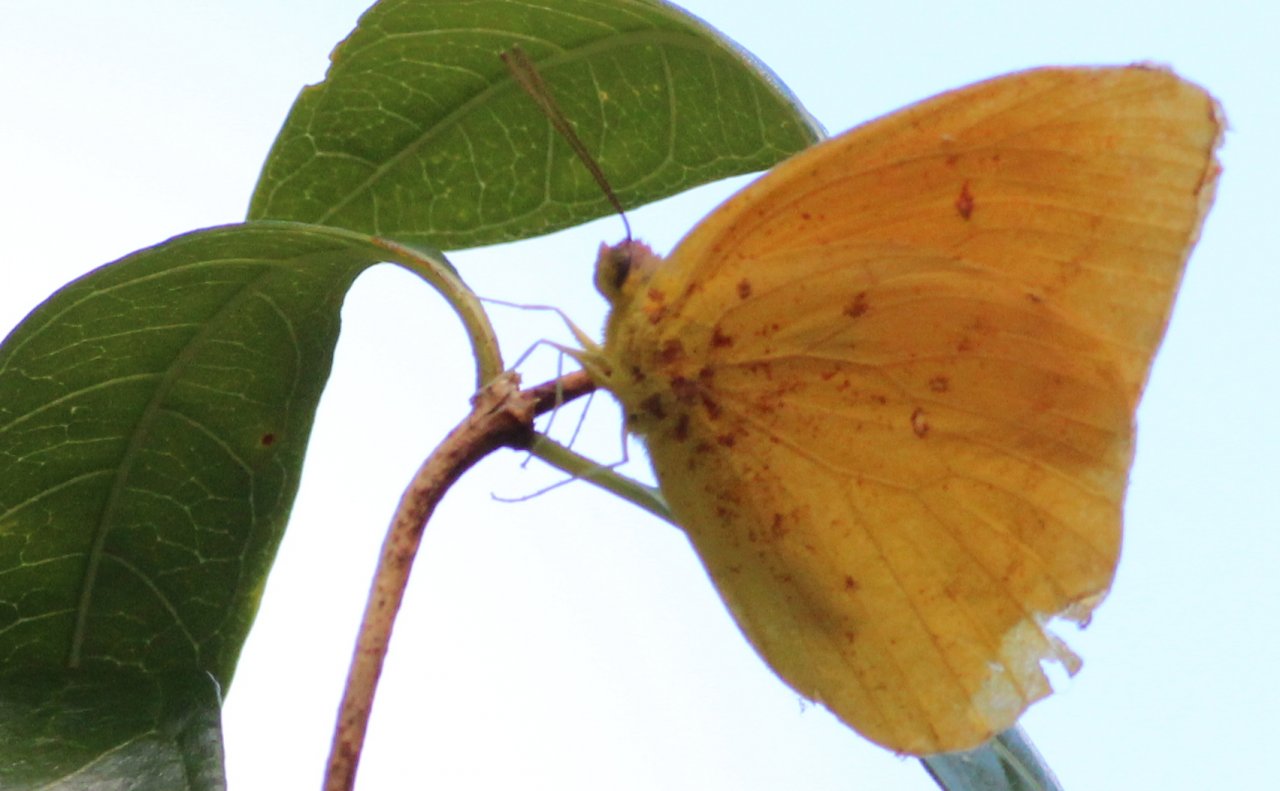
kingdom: Animalia
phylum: Arthropoda
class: Insecta
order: Lepidoptera
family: Pieridae
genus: Phoebis
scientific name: Phoebis philea
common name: Orange-barred Sulphur
